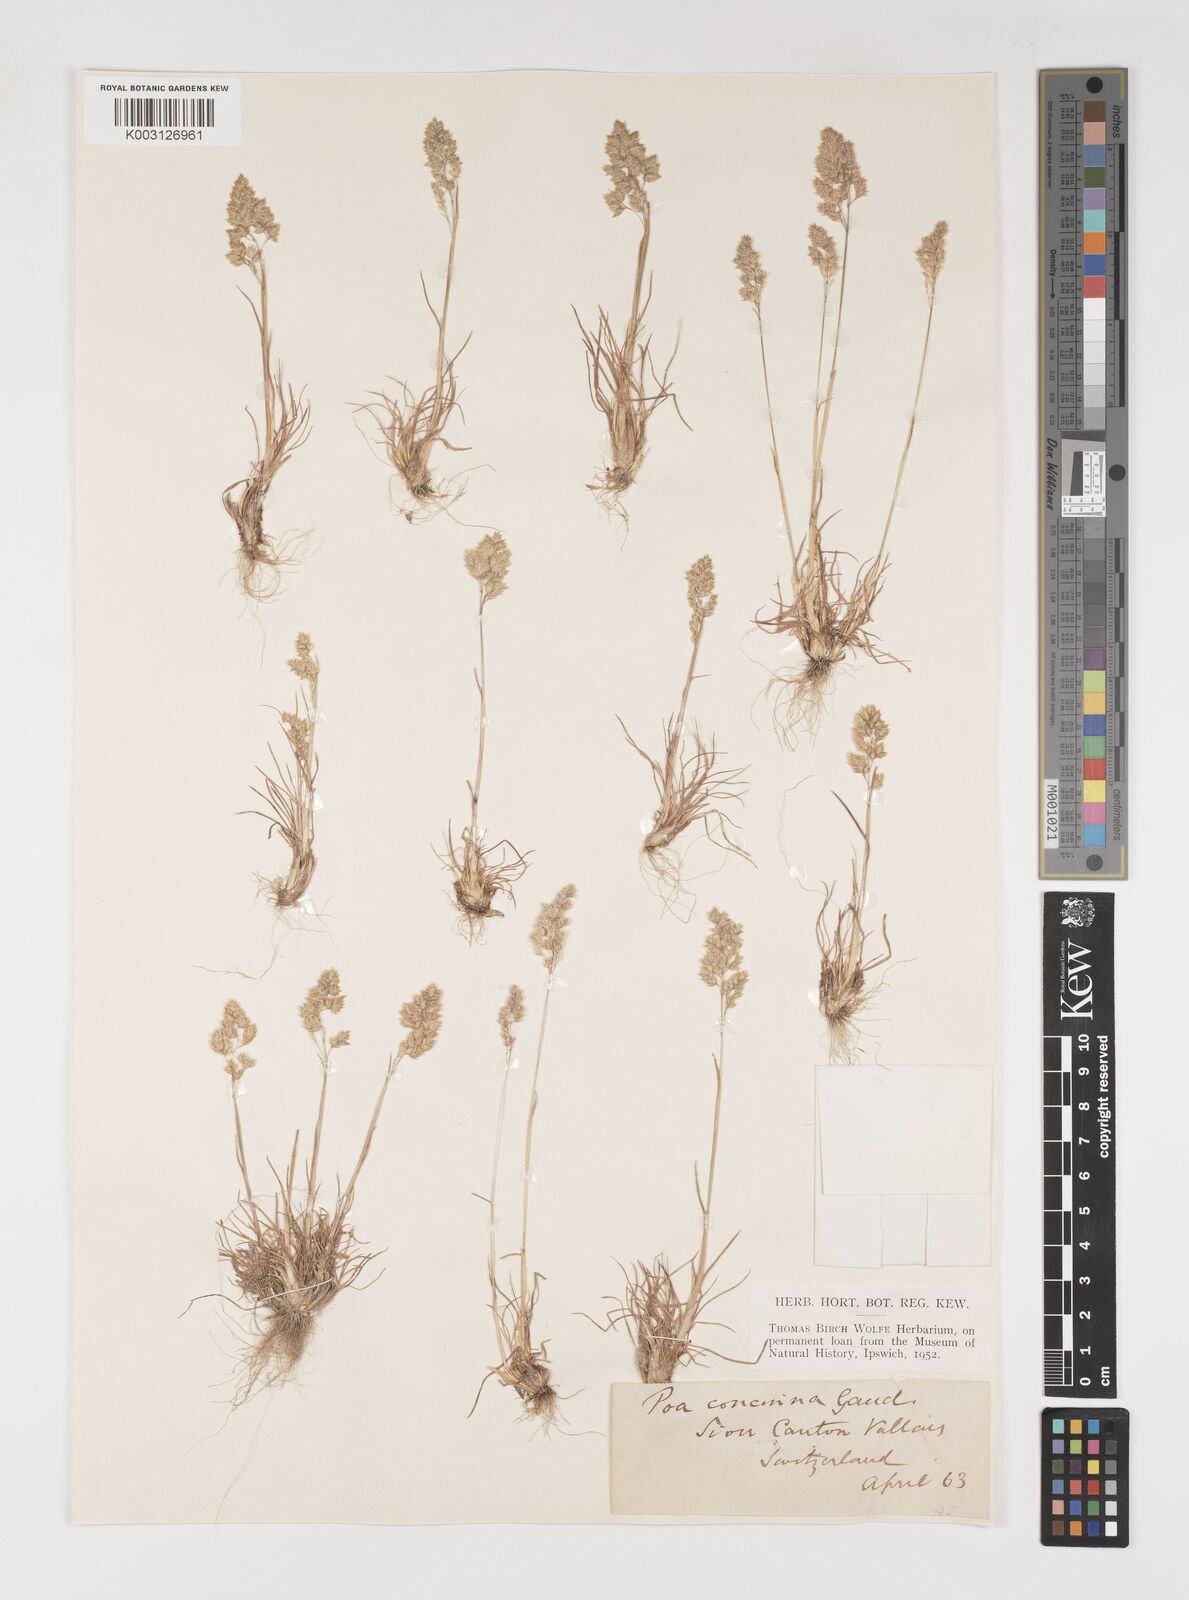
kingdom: Plantae
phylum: Tracheophyta
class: Liliopsida
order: Poales
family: Poaceae
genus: Poa
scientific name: Poa perconcinna
